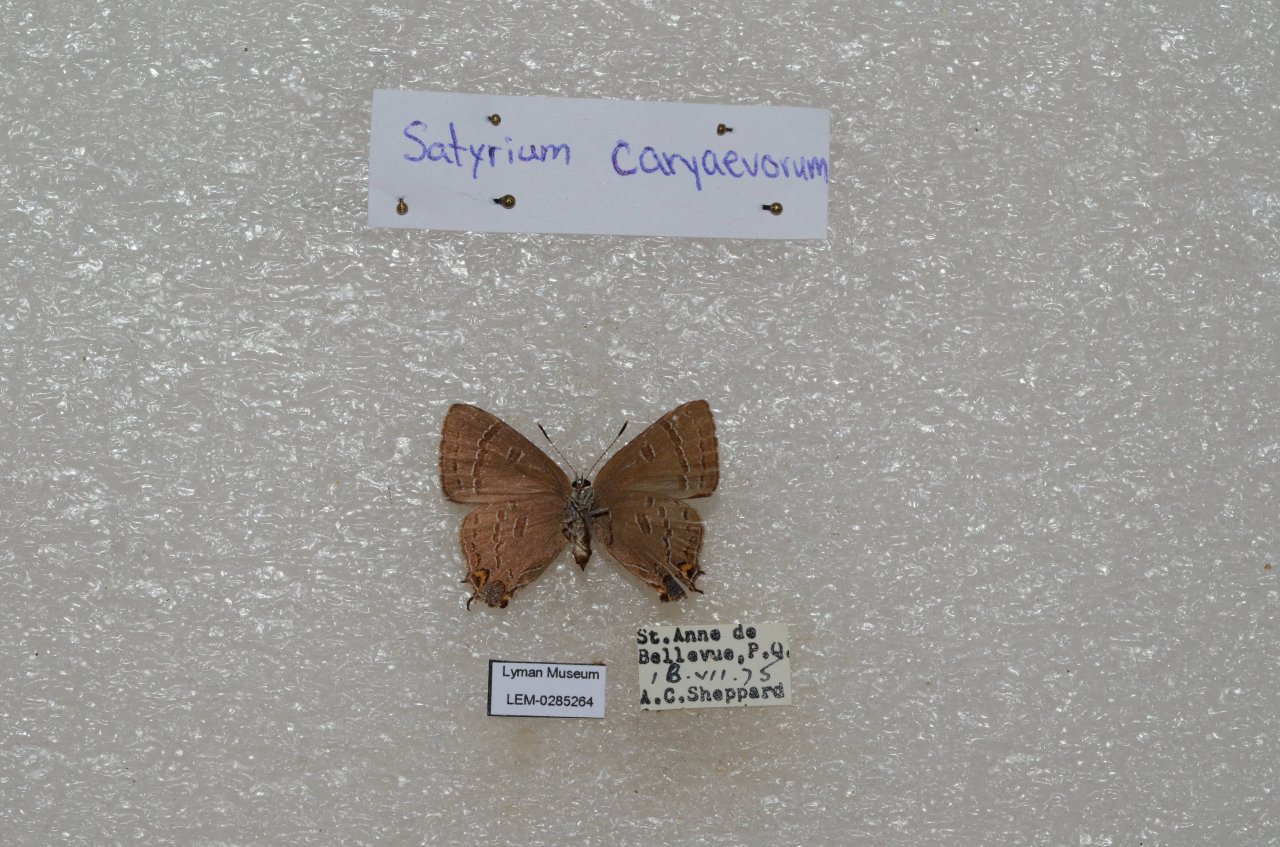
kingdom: Animalia
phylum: Arthropoda
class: Insecta
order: Lepidoptera
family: Lycaenidae
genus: Satyrium
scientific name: Satyrium calanus
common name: Banded Hairstreak
